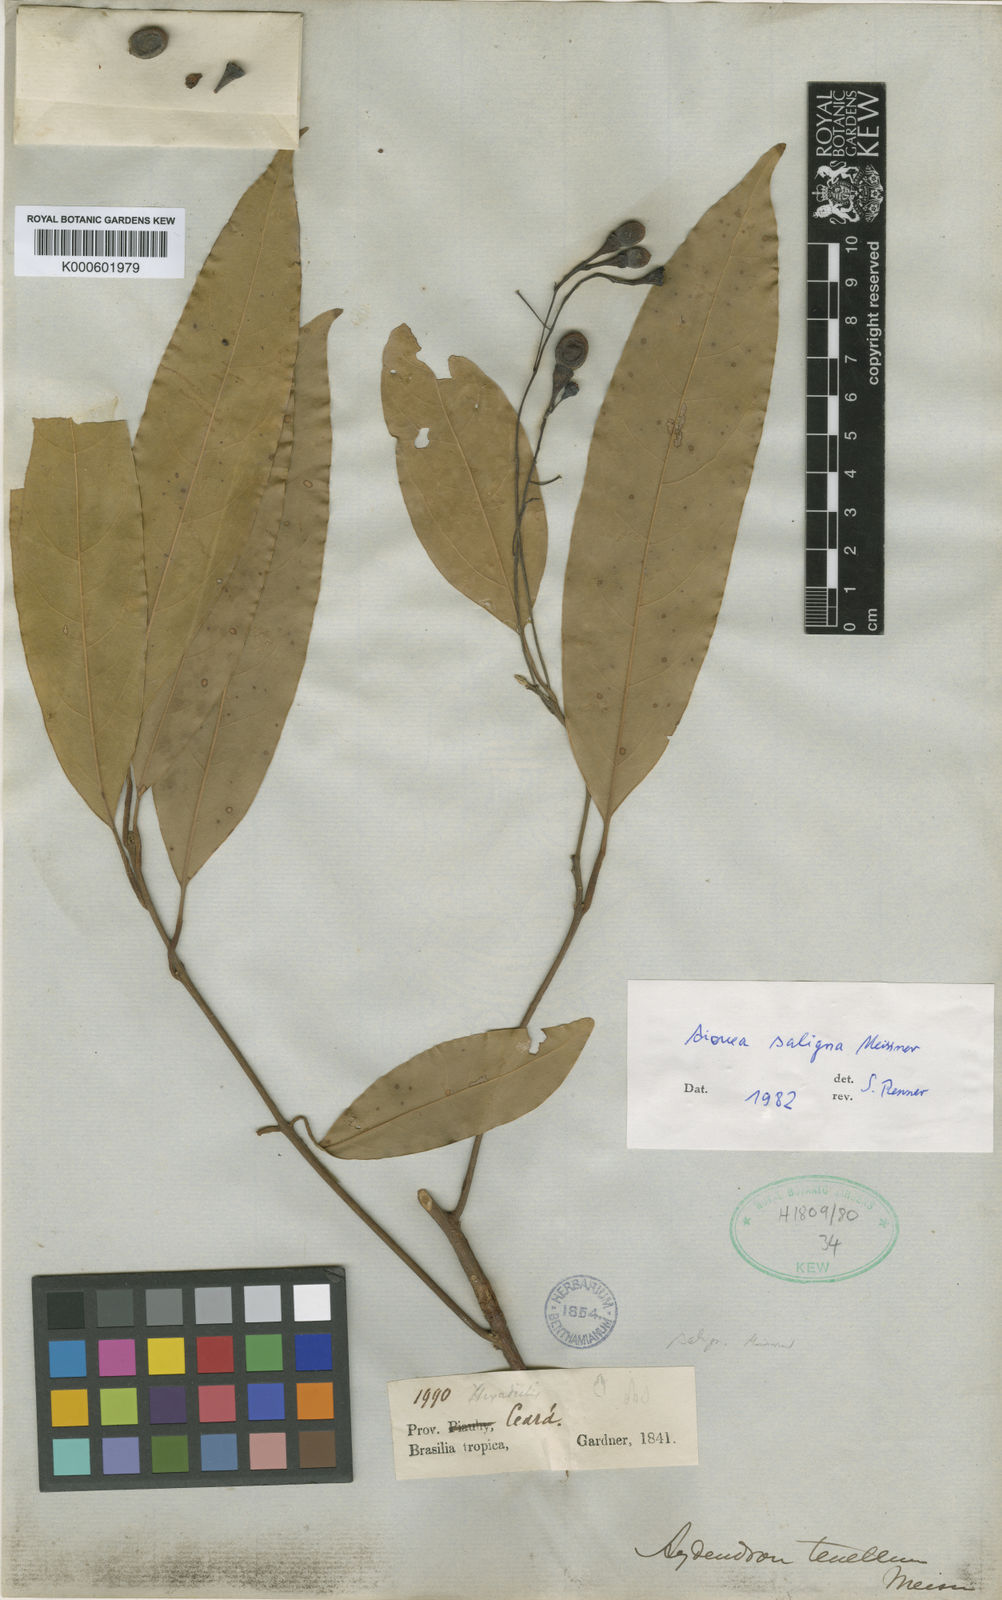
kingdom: Plantae
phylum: Tracheophyta
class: Magnoliopsida
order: Laurales
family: Lauraceae
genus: Aiouea
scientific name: Aiouea saligna
